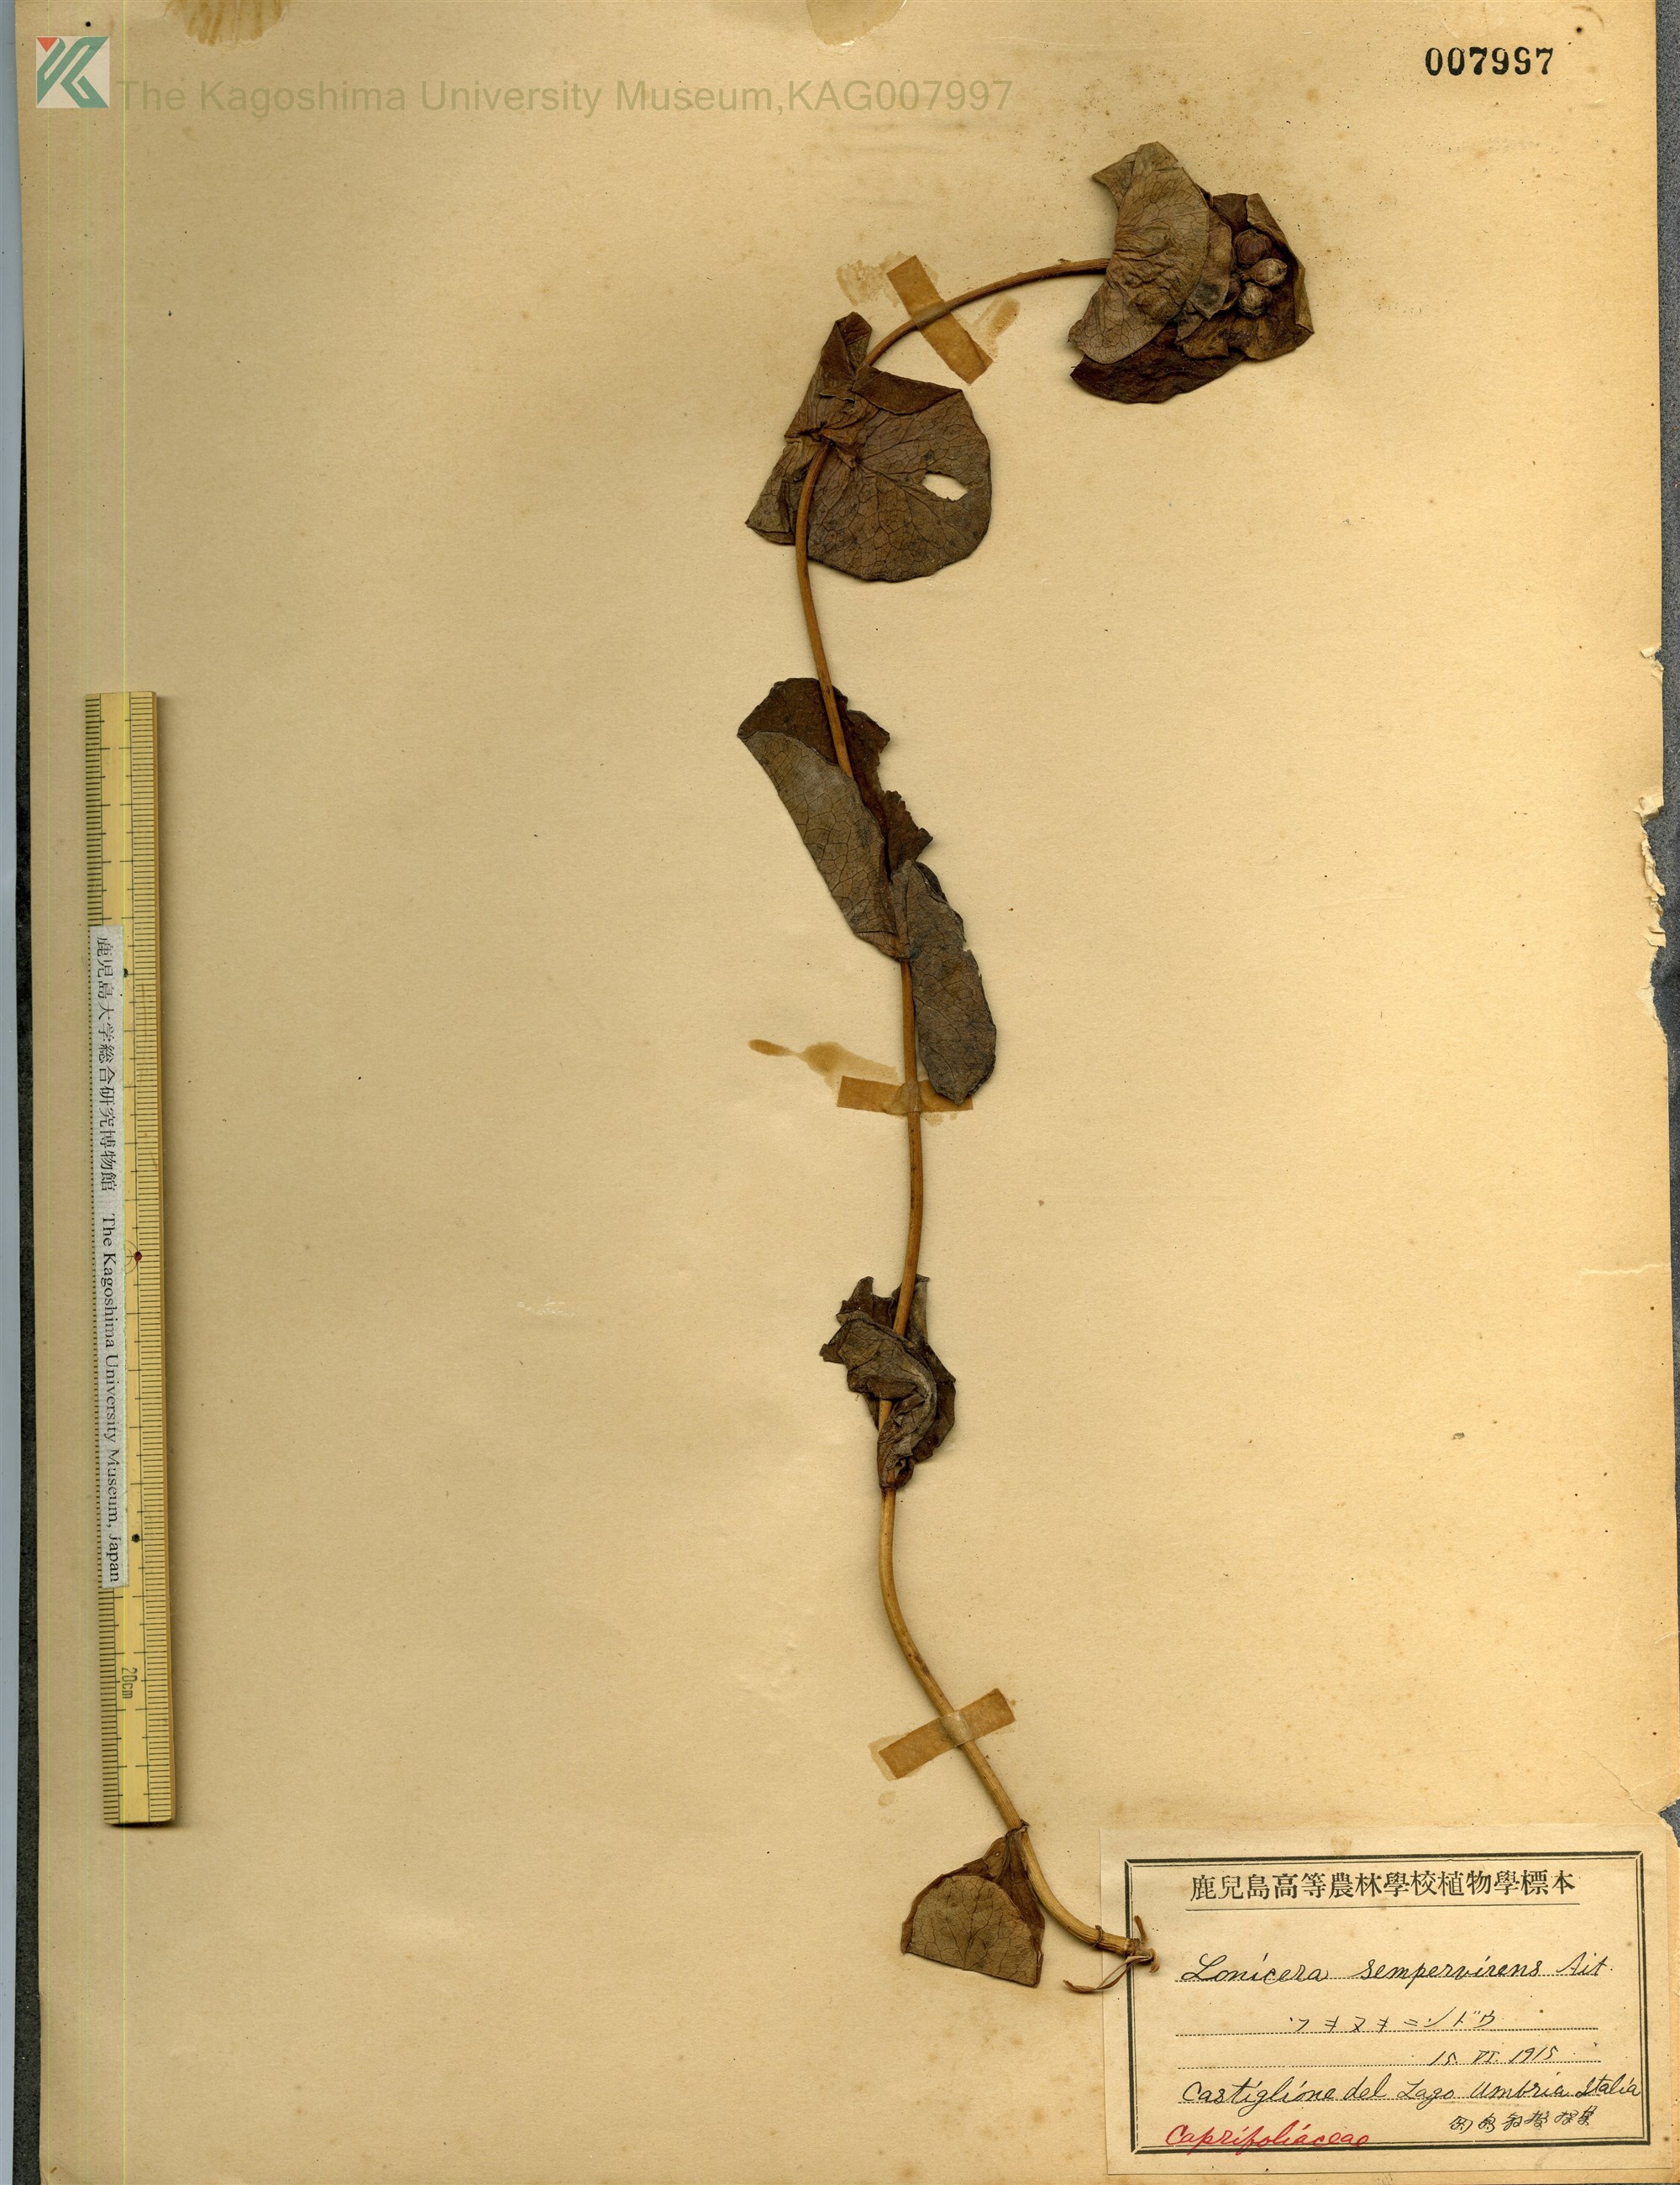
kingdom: Plantae
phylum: Tracheophyta
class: Magnoliopsida
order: Dipsacales
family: Caprifoliaceae
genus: Lonicera
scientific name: Lonicera caprifolium
